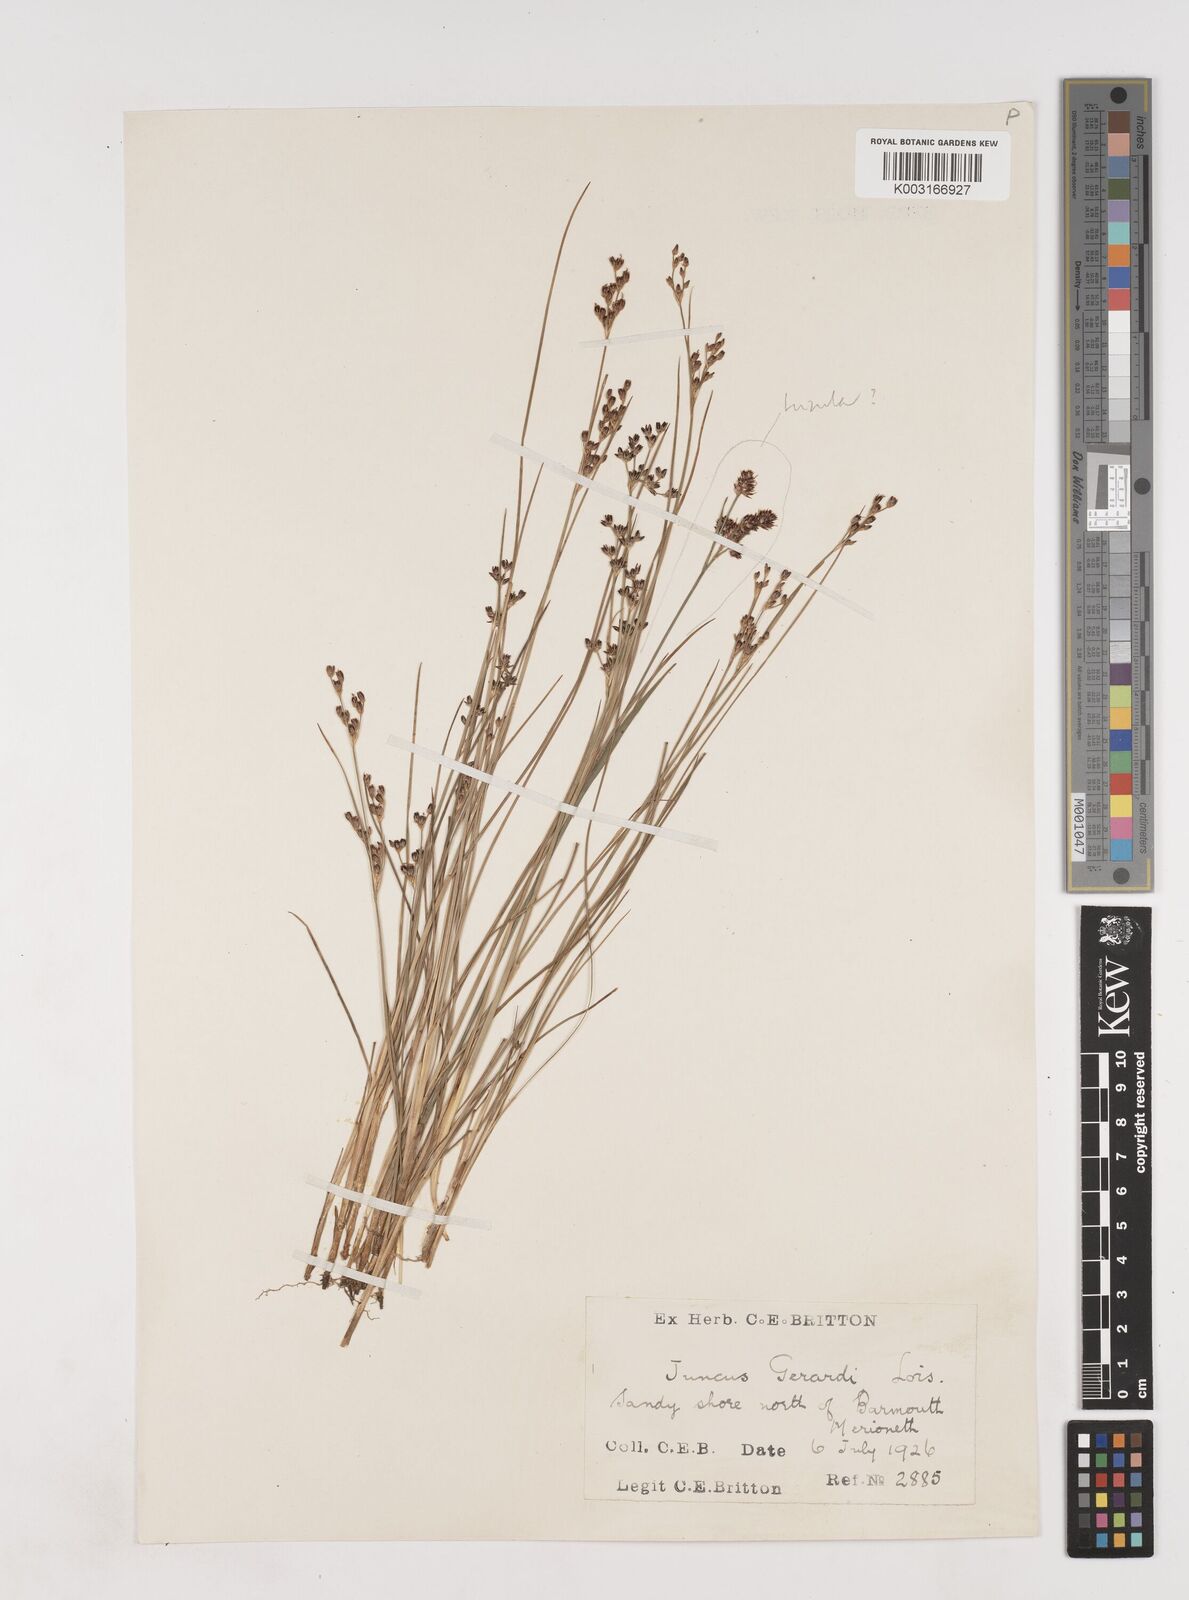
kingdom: Plantae
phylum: Tracheophyta
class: Liliopsida
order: Poales
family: Juncaceae
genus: Juncus
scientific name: Juncus gerardi
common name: Saltmarsh rush
